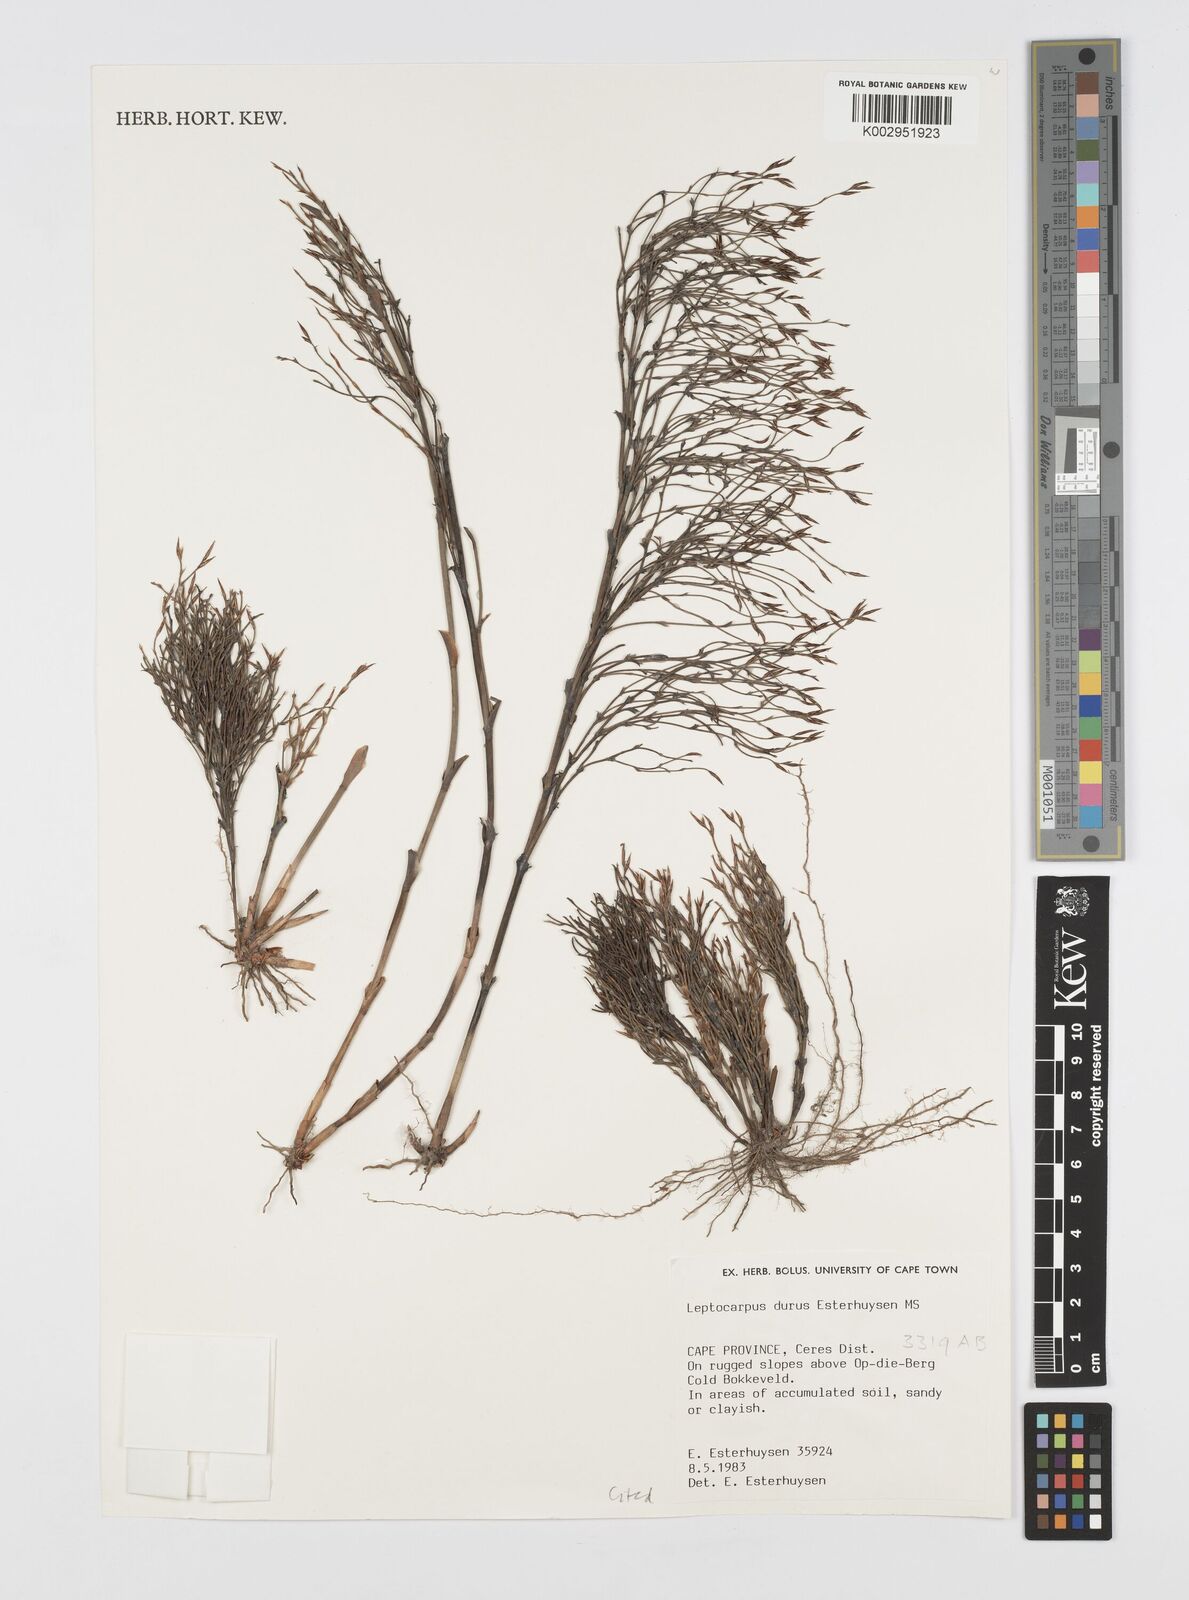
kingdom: Plantae
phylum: Tracheophyta
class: Liliopsida
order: Poales
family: Restionaceae
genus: Restio
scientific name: Restio durus
